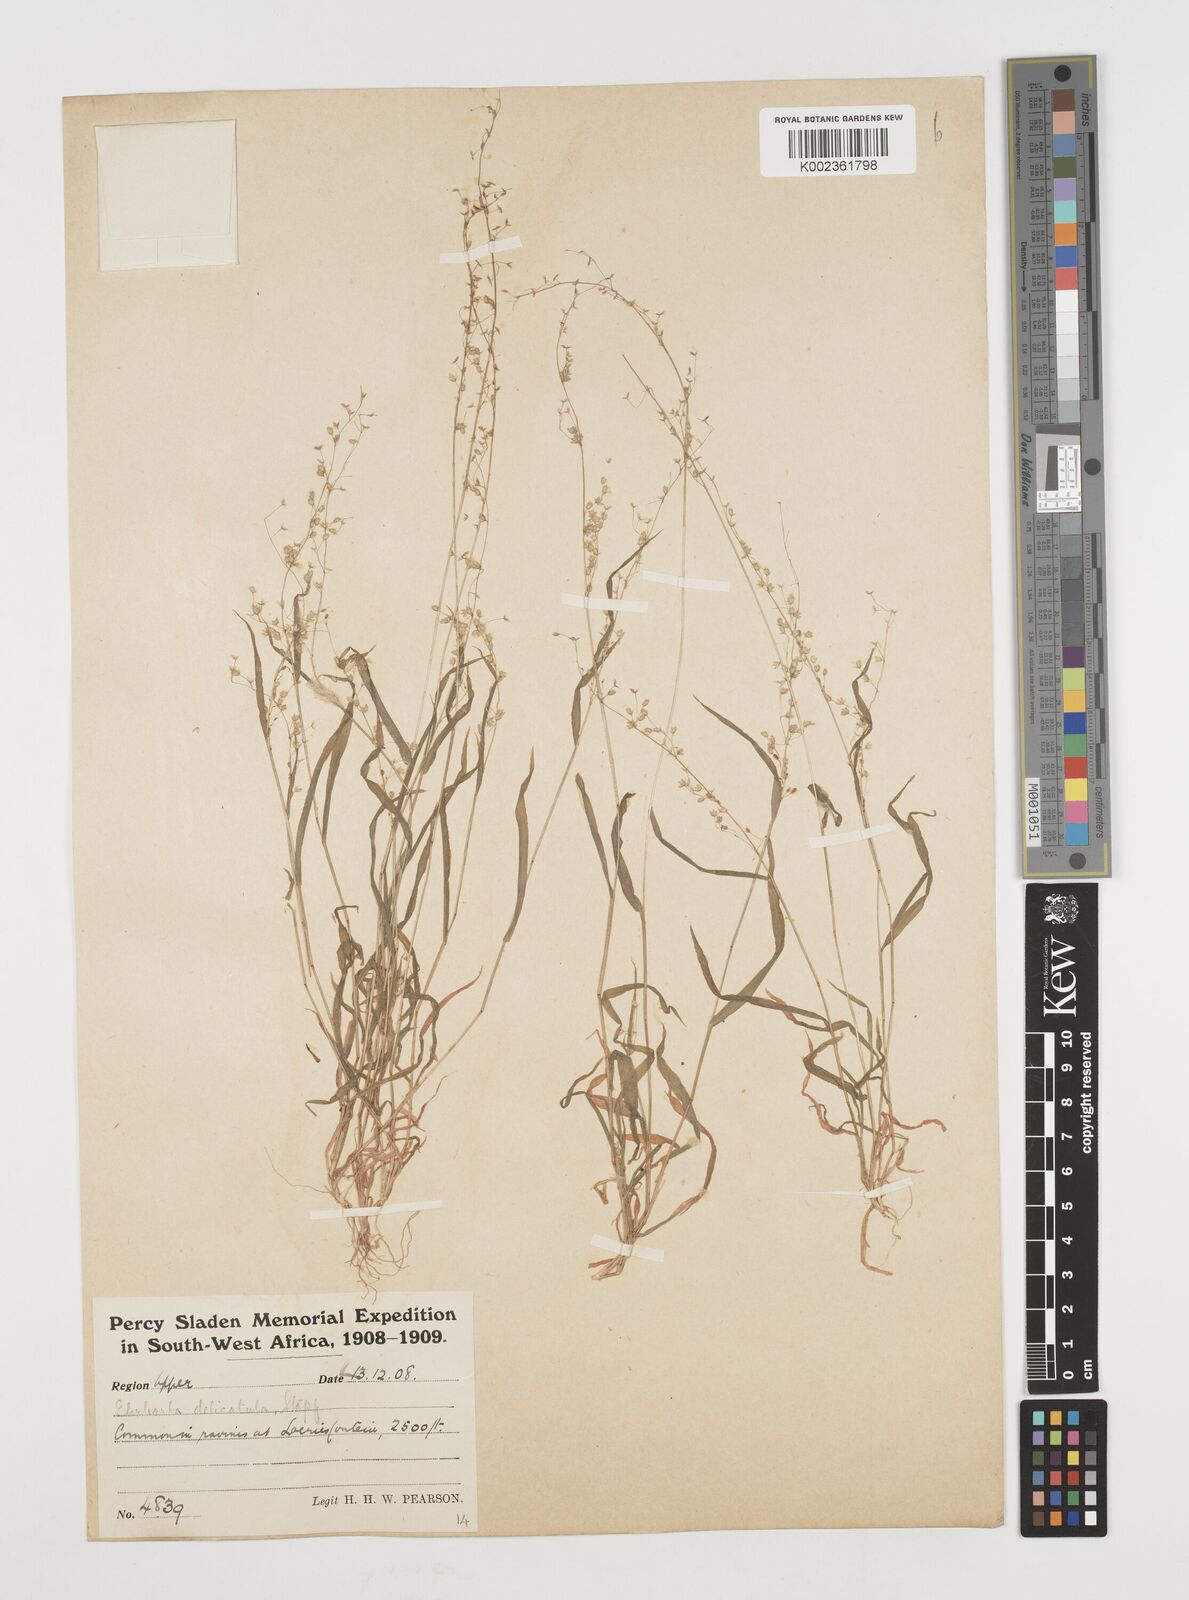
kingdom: Plantae
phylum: Tracheophyta
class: Liliopsida
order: Poales
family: Poaceae
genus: Ehrharta
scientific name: Ehrharta delicatula
